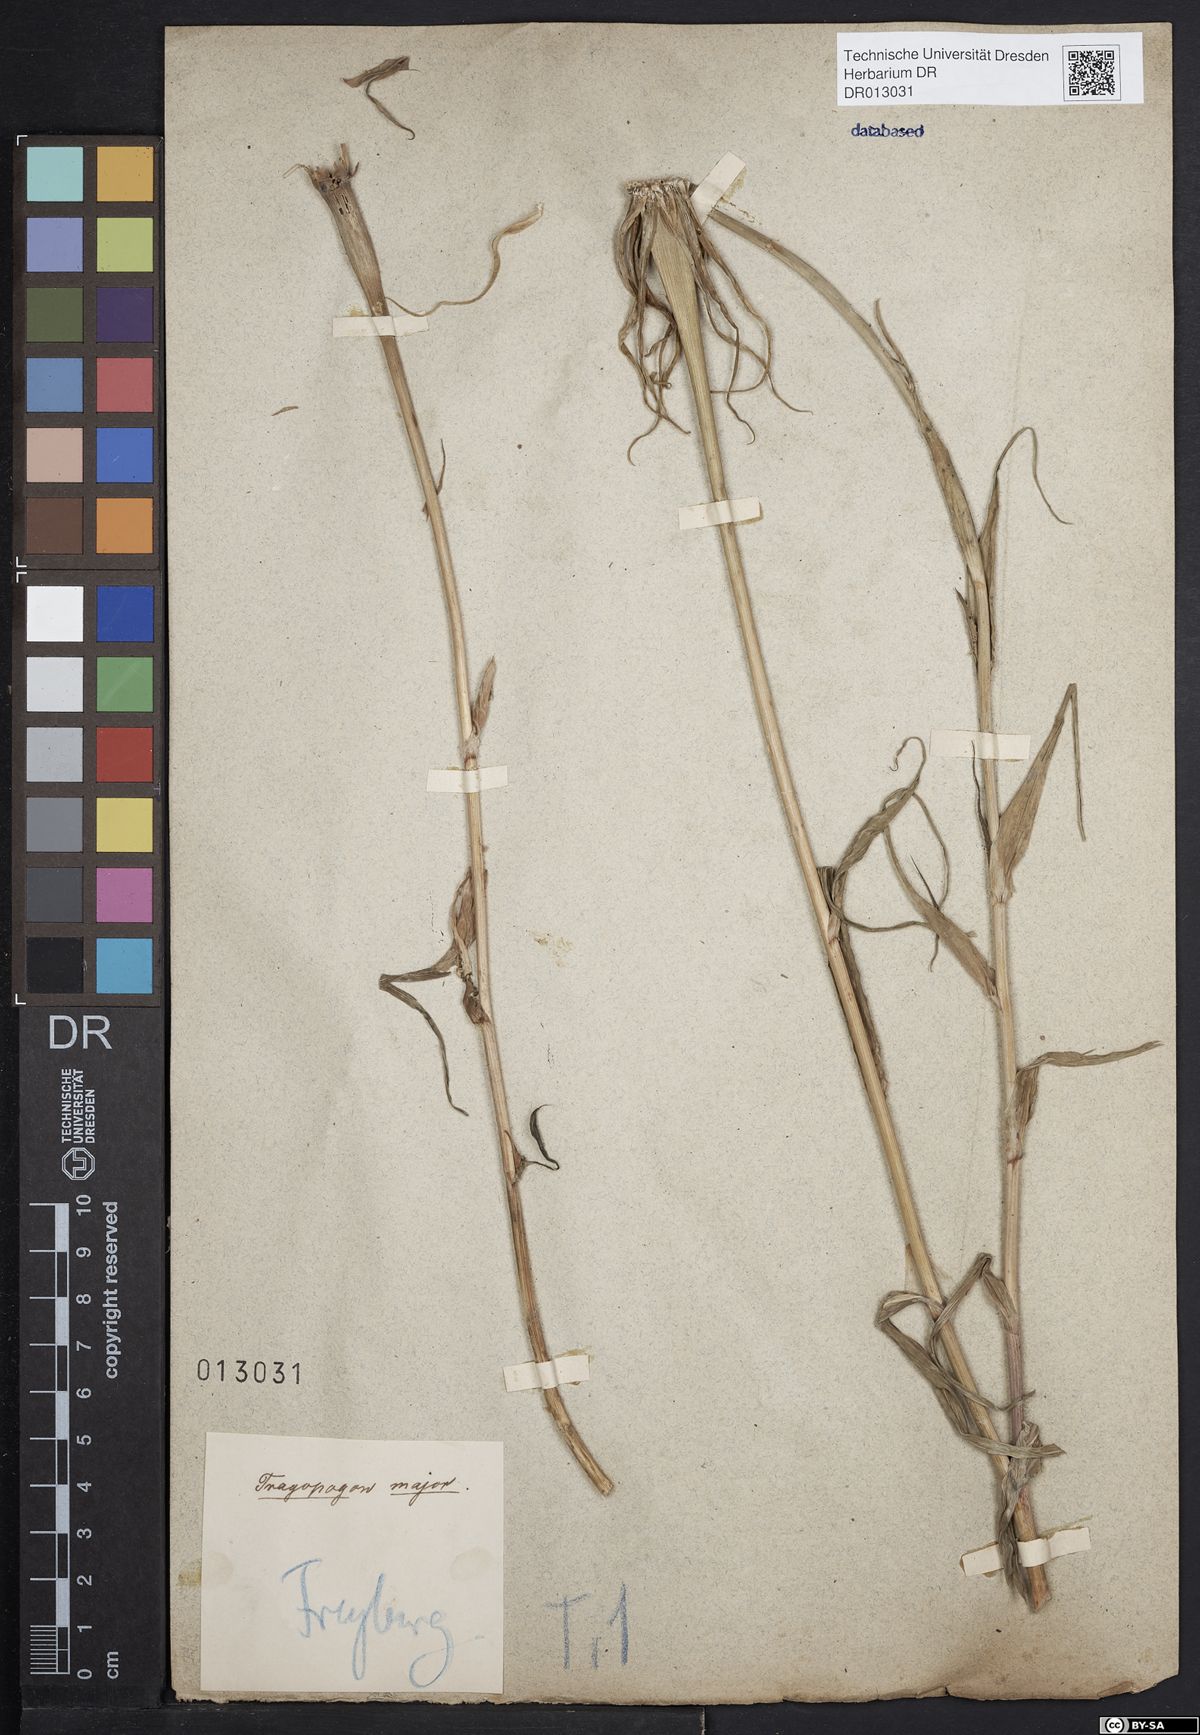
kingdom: Plantae
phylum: Tracheophyta
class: Magnoliopsida
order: Asterales
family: Asteraceae
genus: Tragopogon
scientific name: Tragopogon dubius
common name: Yellow salsify
